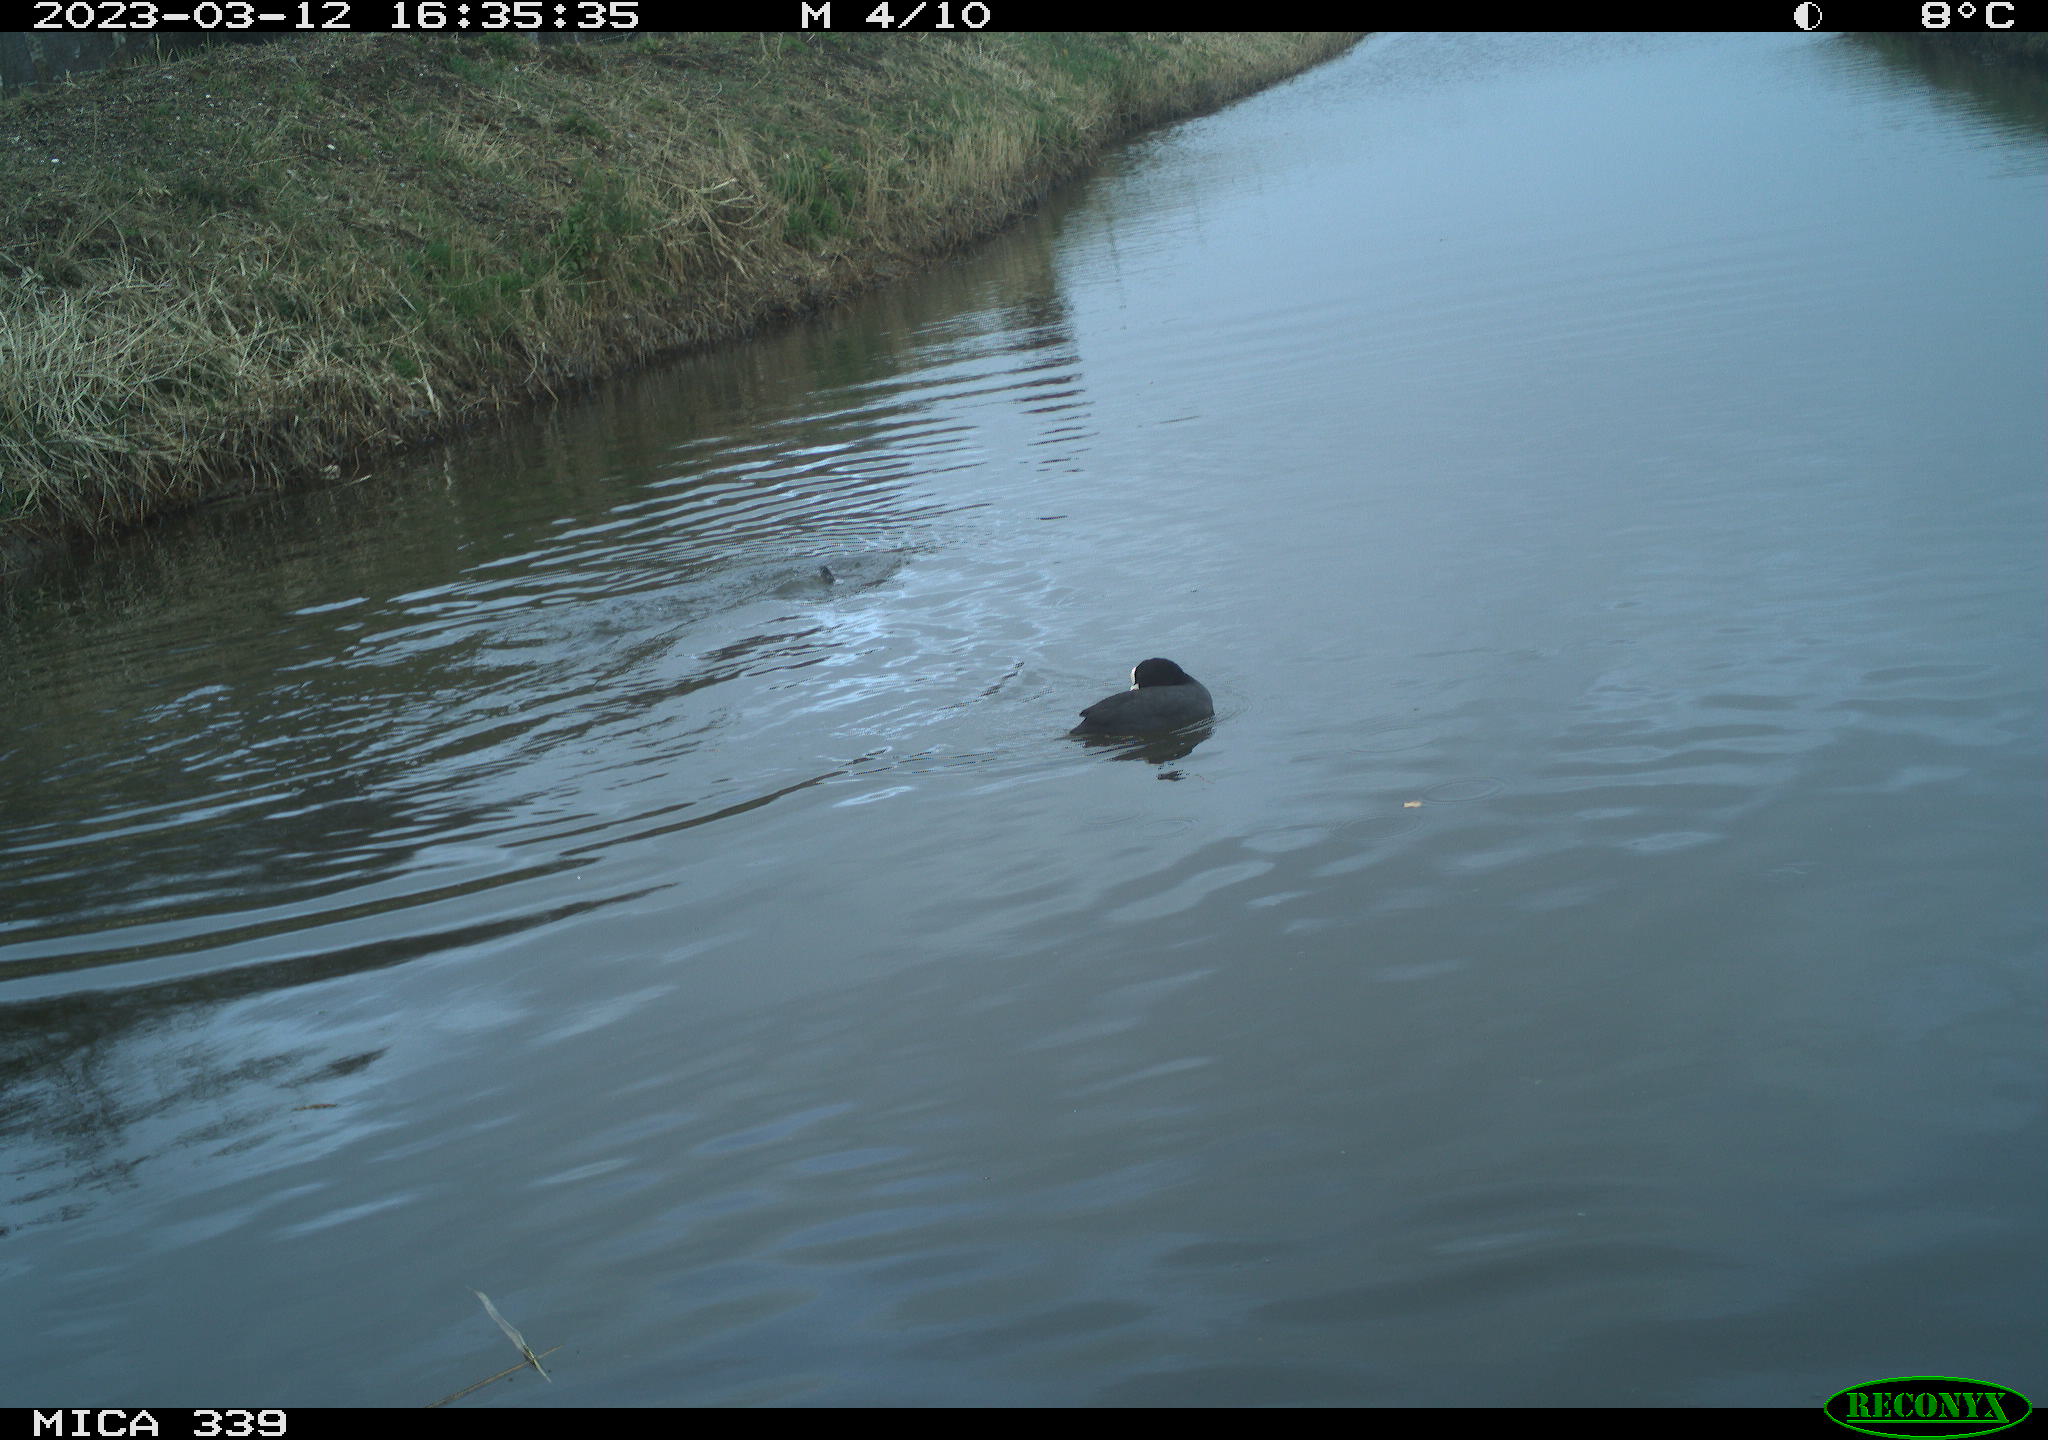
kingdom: Animalia
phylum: Chordata
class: Aves
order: Gruiformes
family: Rallidae
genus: Fulica
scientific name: Fulica atra
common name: Eurasian coot
